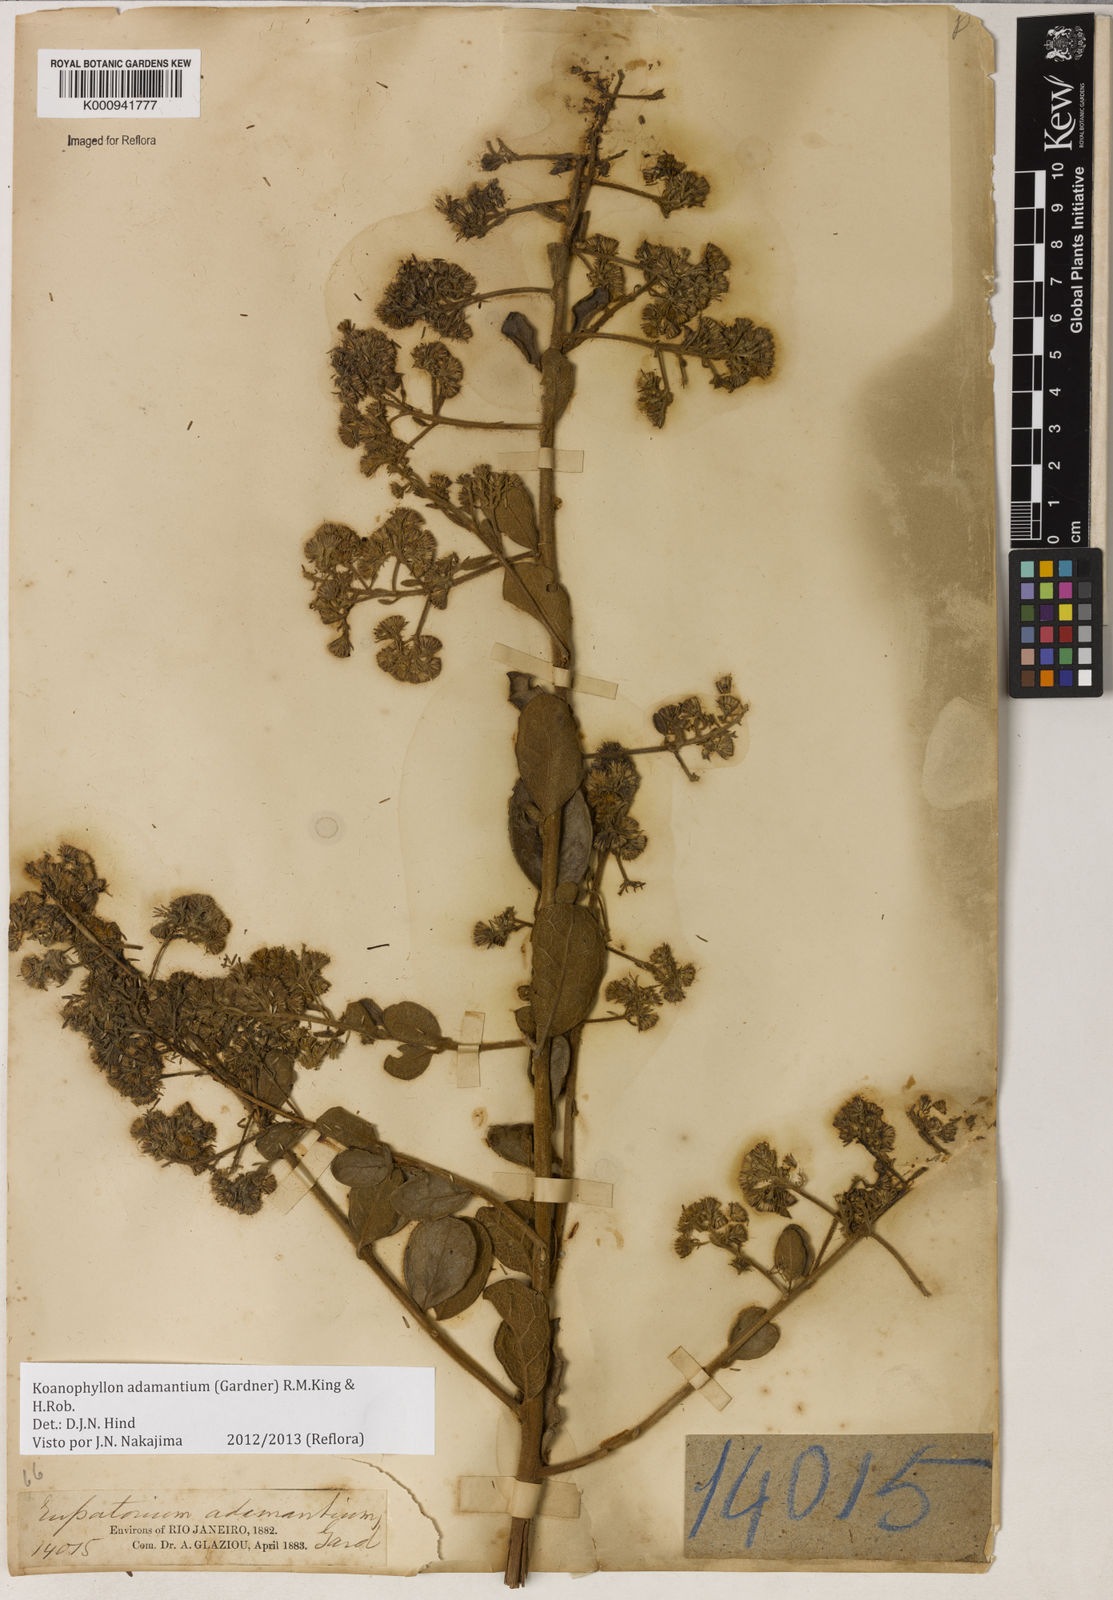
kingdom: Plantae
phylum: Tracheophyta
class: Magnoliopsida
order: Asterales
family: Asteraceae
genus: Koanophyllon
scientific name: Koanophyllon adamantium
